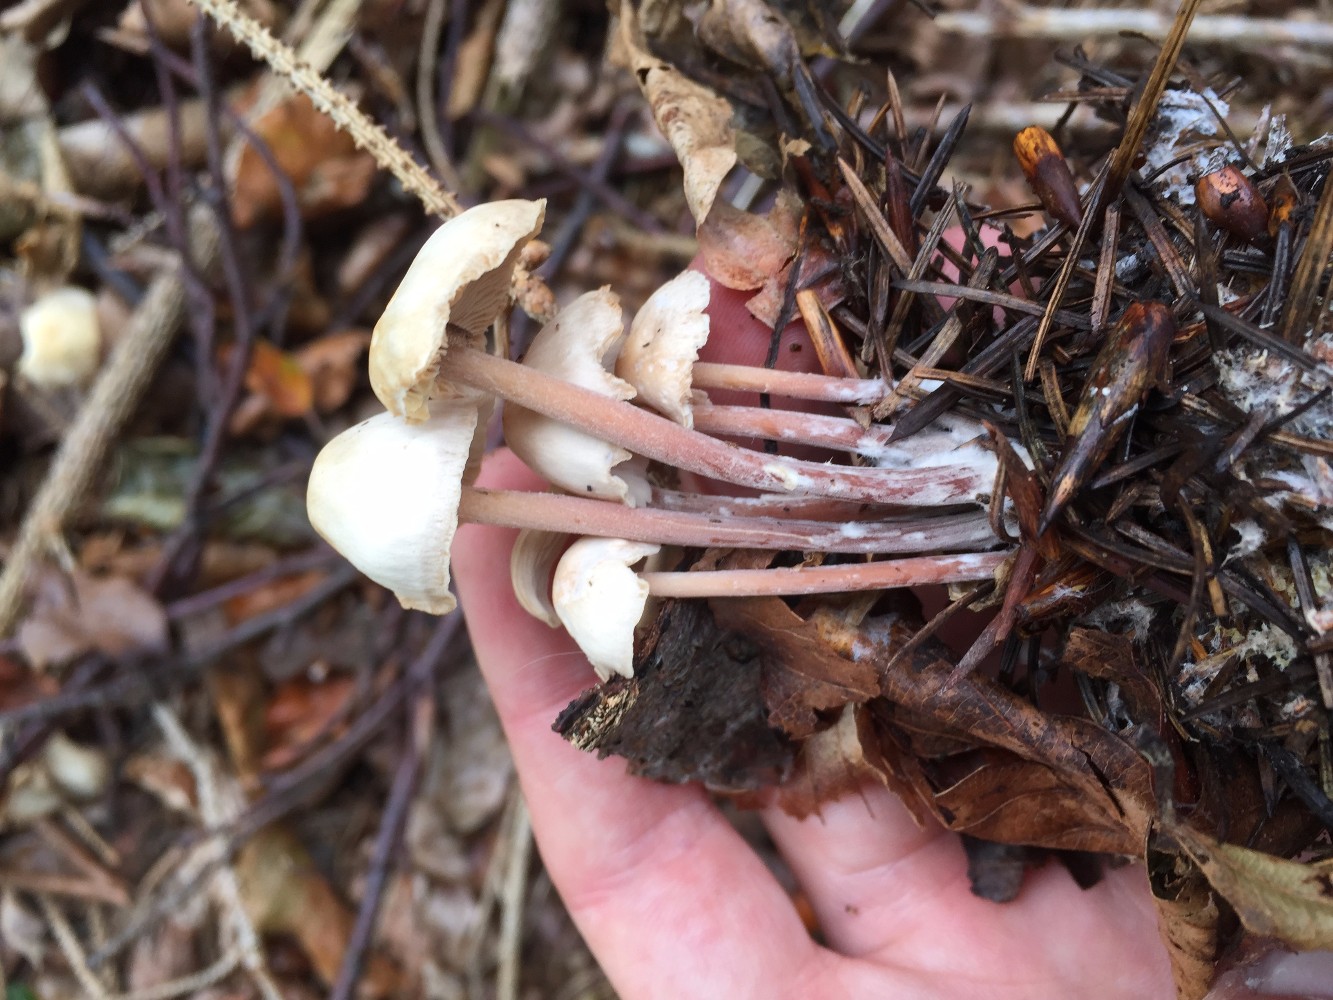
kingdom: Fungi
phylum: Basidiomycota
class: Agaricomycetes
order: Agaricales
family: Omphalotaceae
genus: Collybiopsis
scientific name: Collybiopsis confluens
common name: knippe-fladhat
